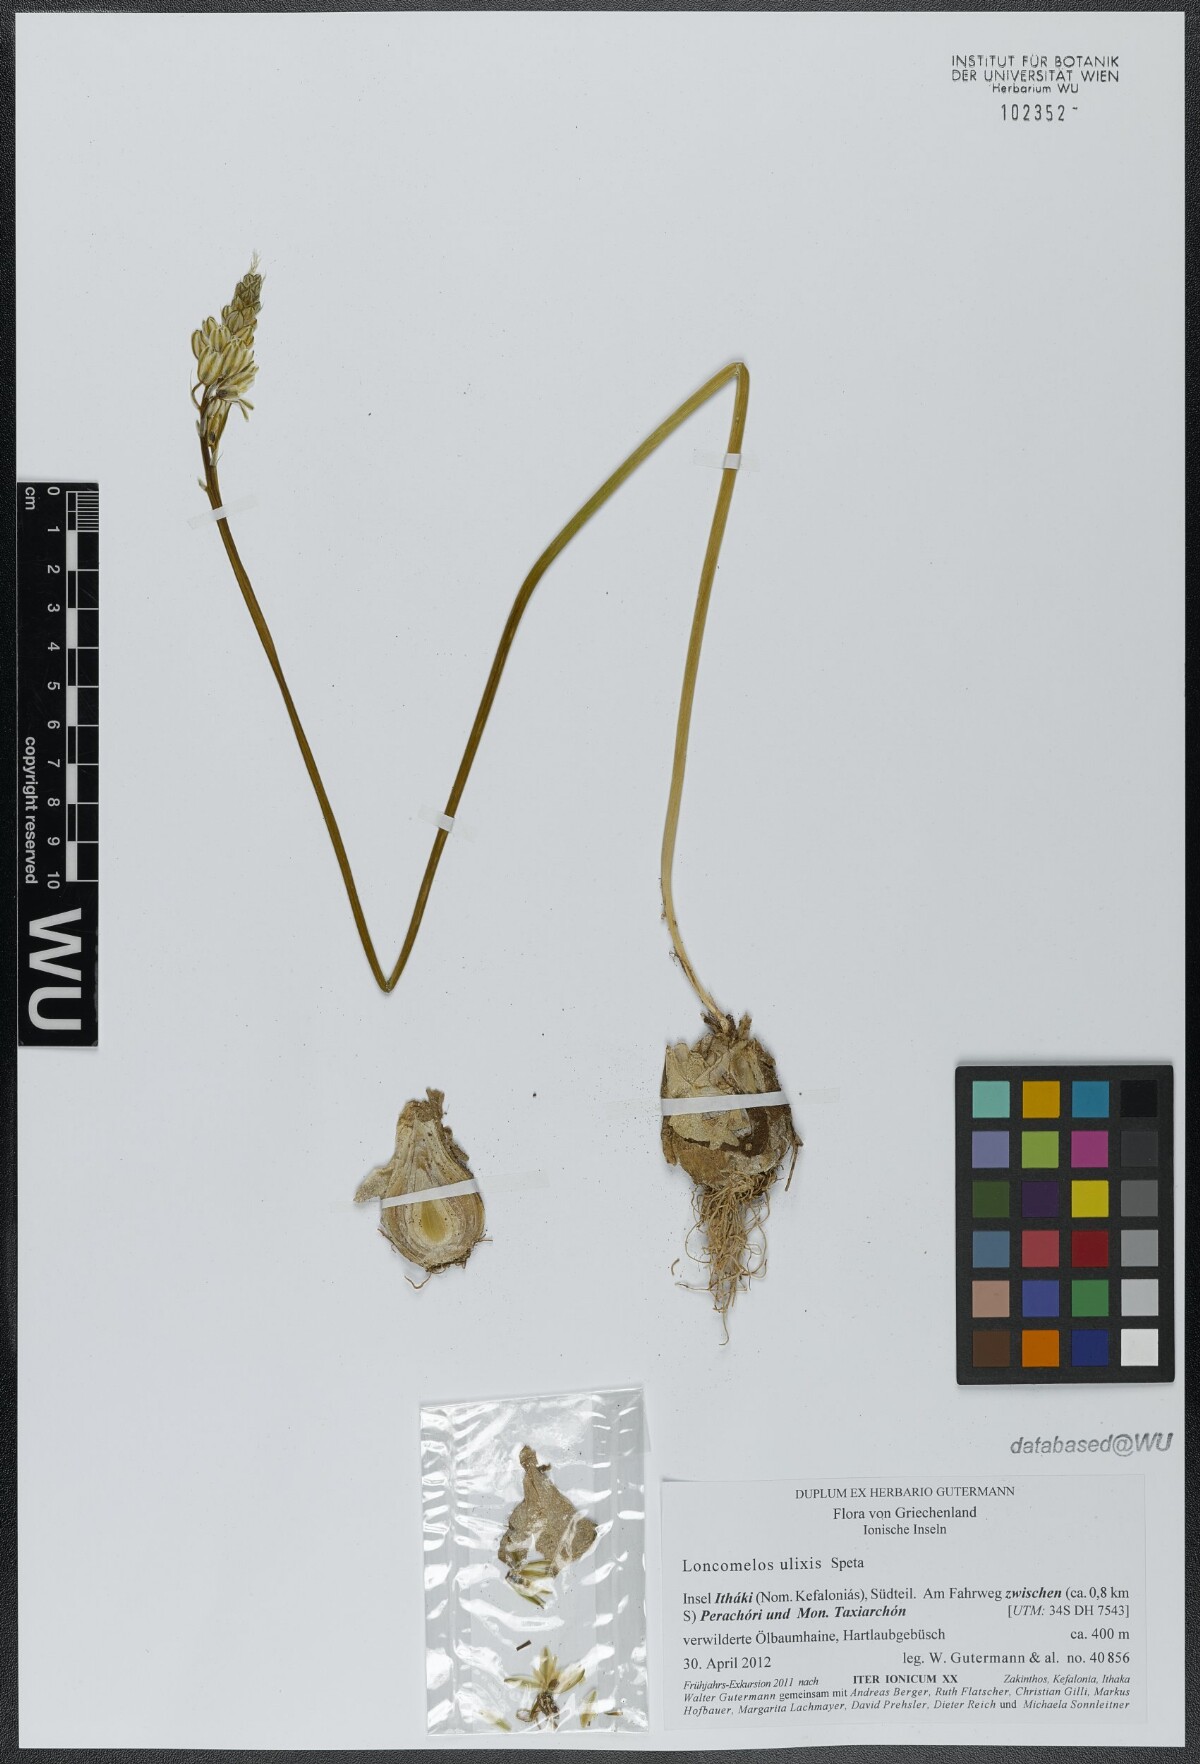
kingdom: Plantae
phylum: Tracheophyta
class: Liliopsida
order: Asparagales
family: Asparagaceae
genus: Ornithogalum
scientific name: Ornithogalum ulixis
